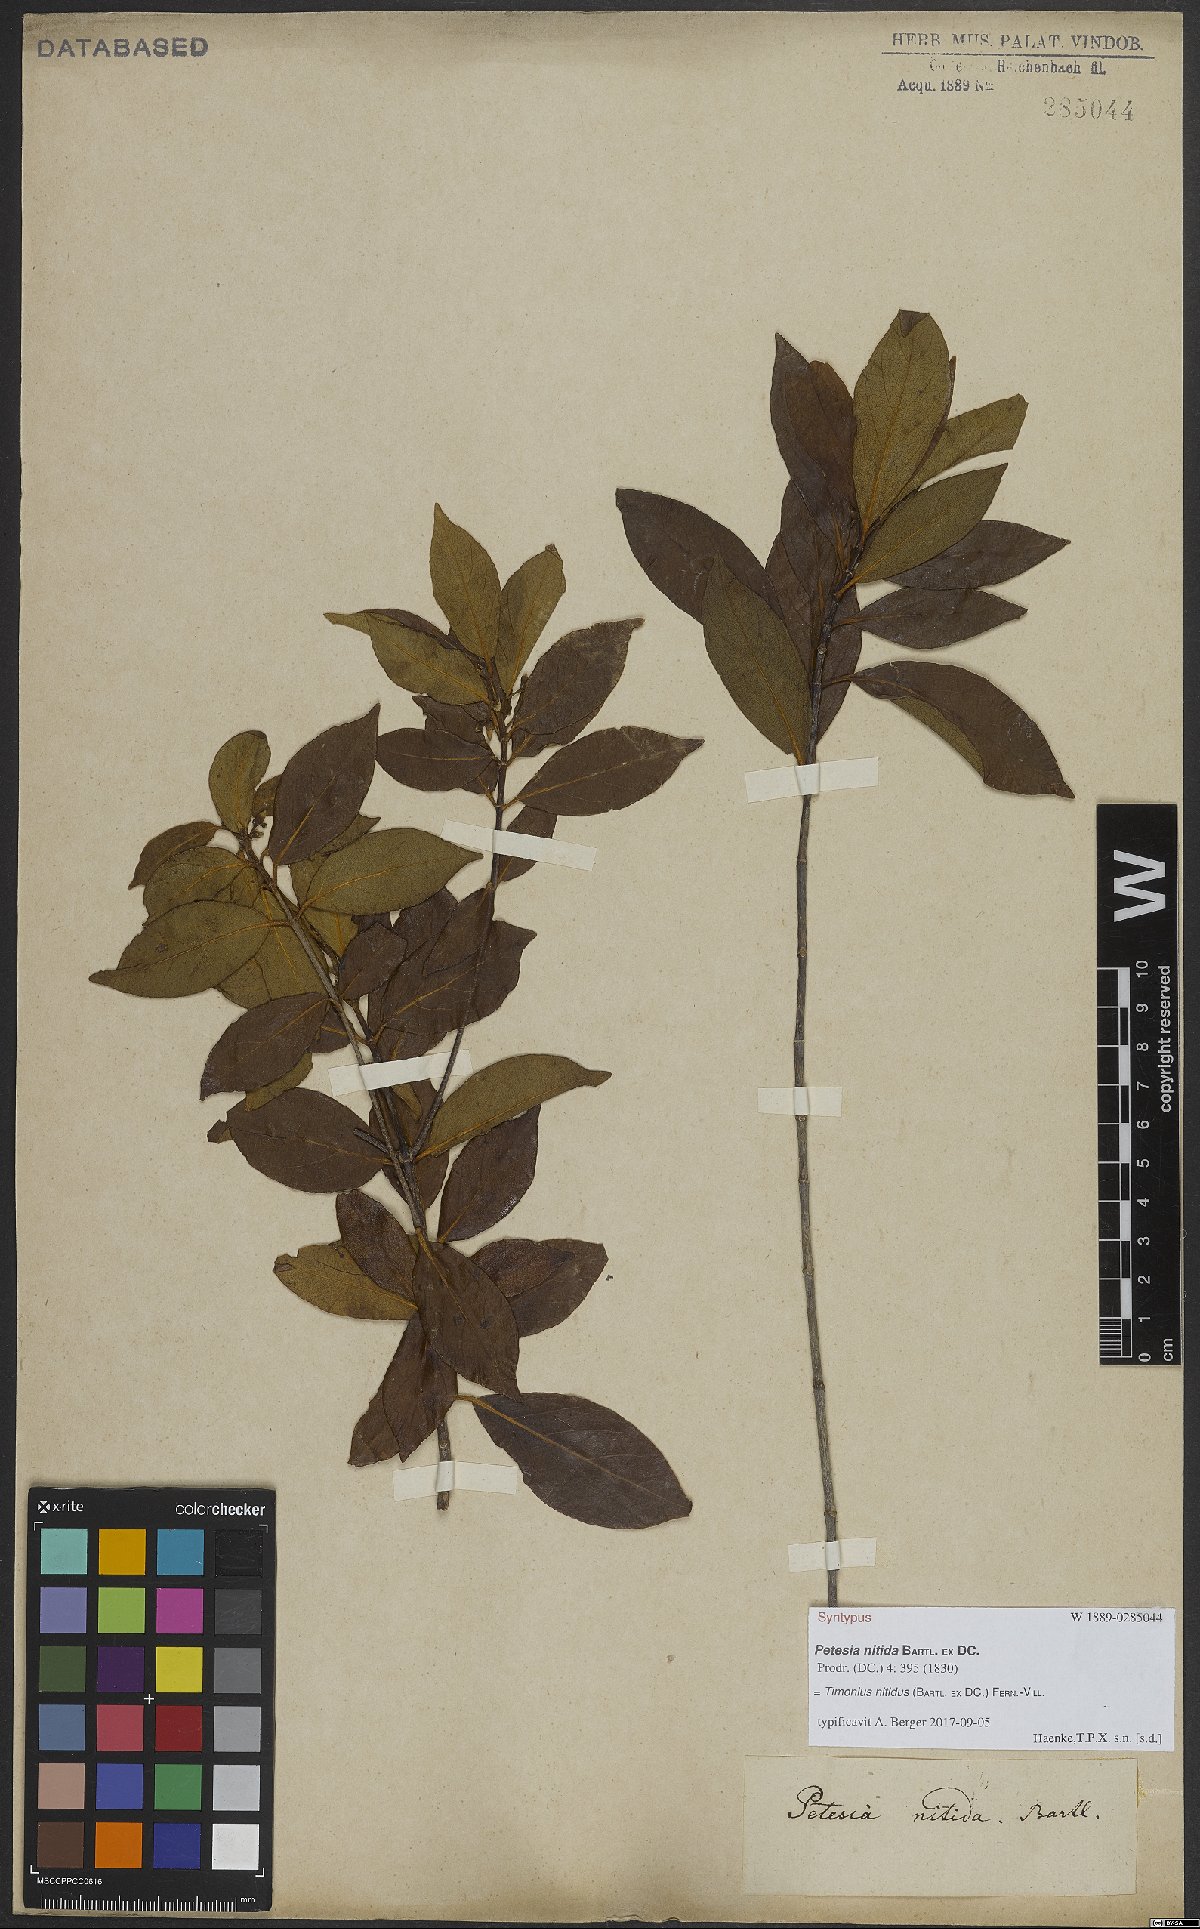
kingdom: Plantae
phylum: Tracheophyta
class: Magnoliopsida
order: Gentianales
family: Rubiaceae
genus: Timonius
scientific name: Timonius nitidus
